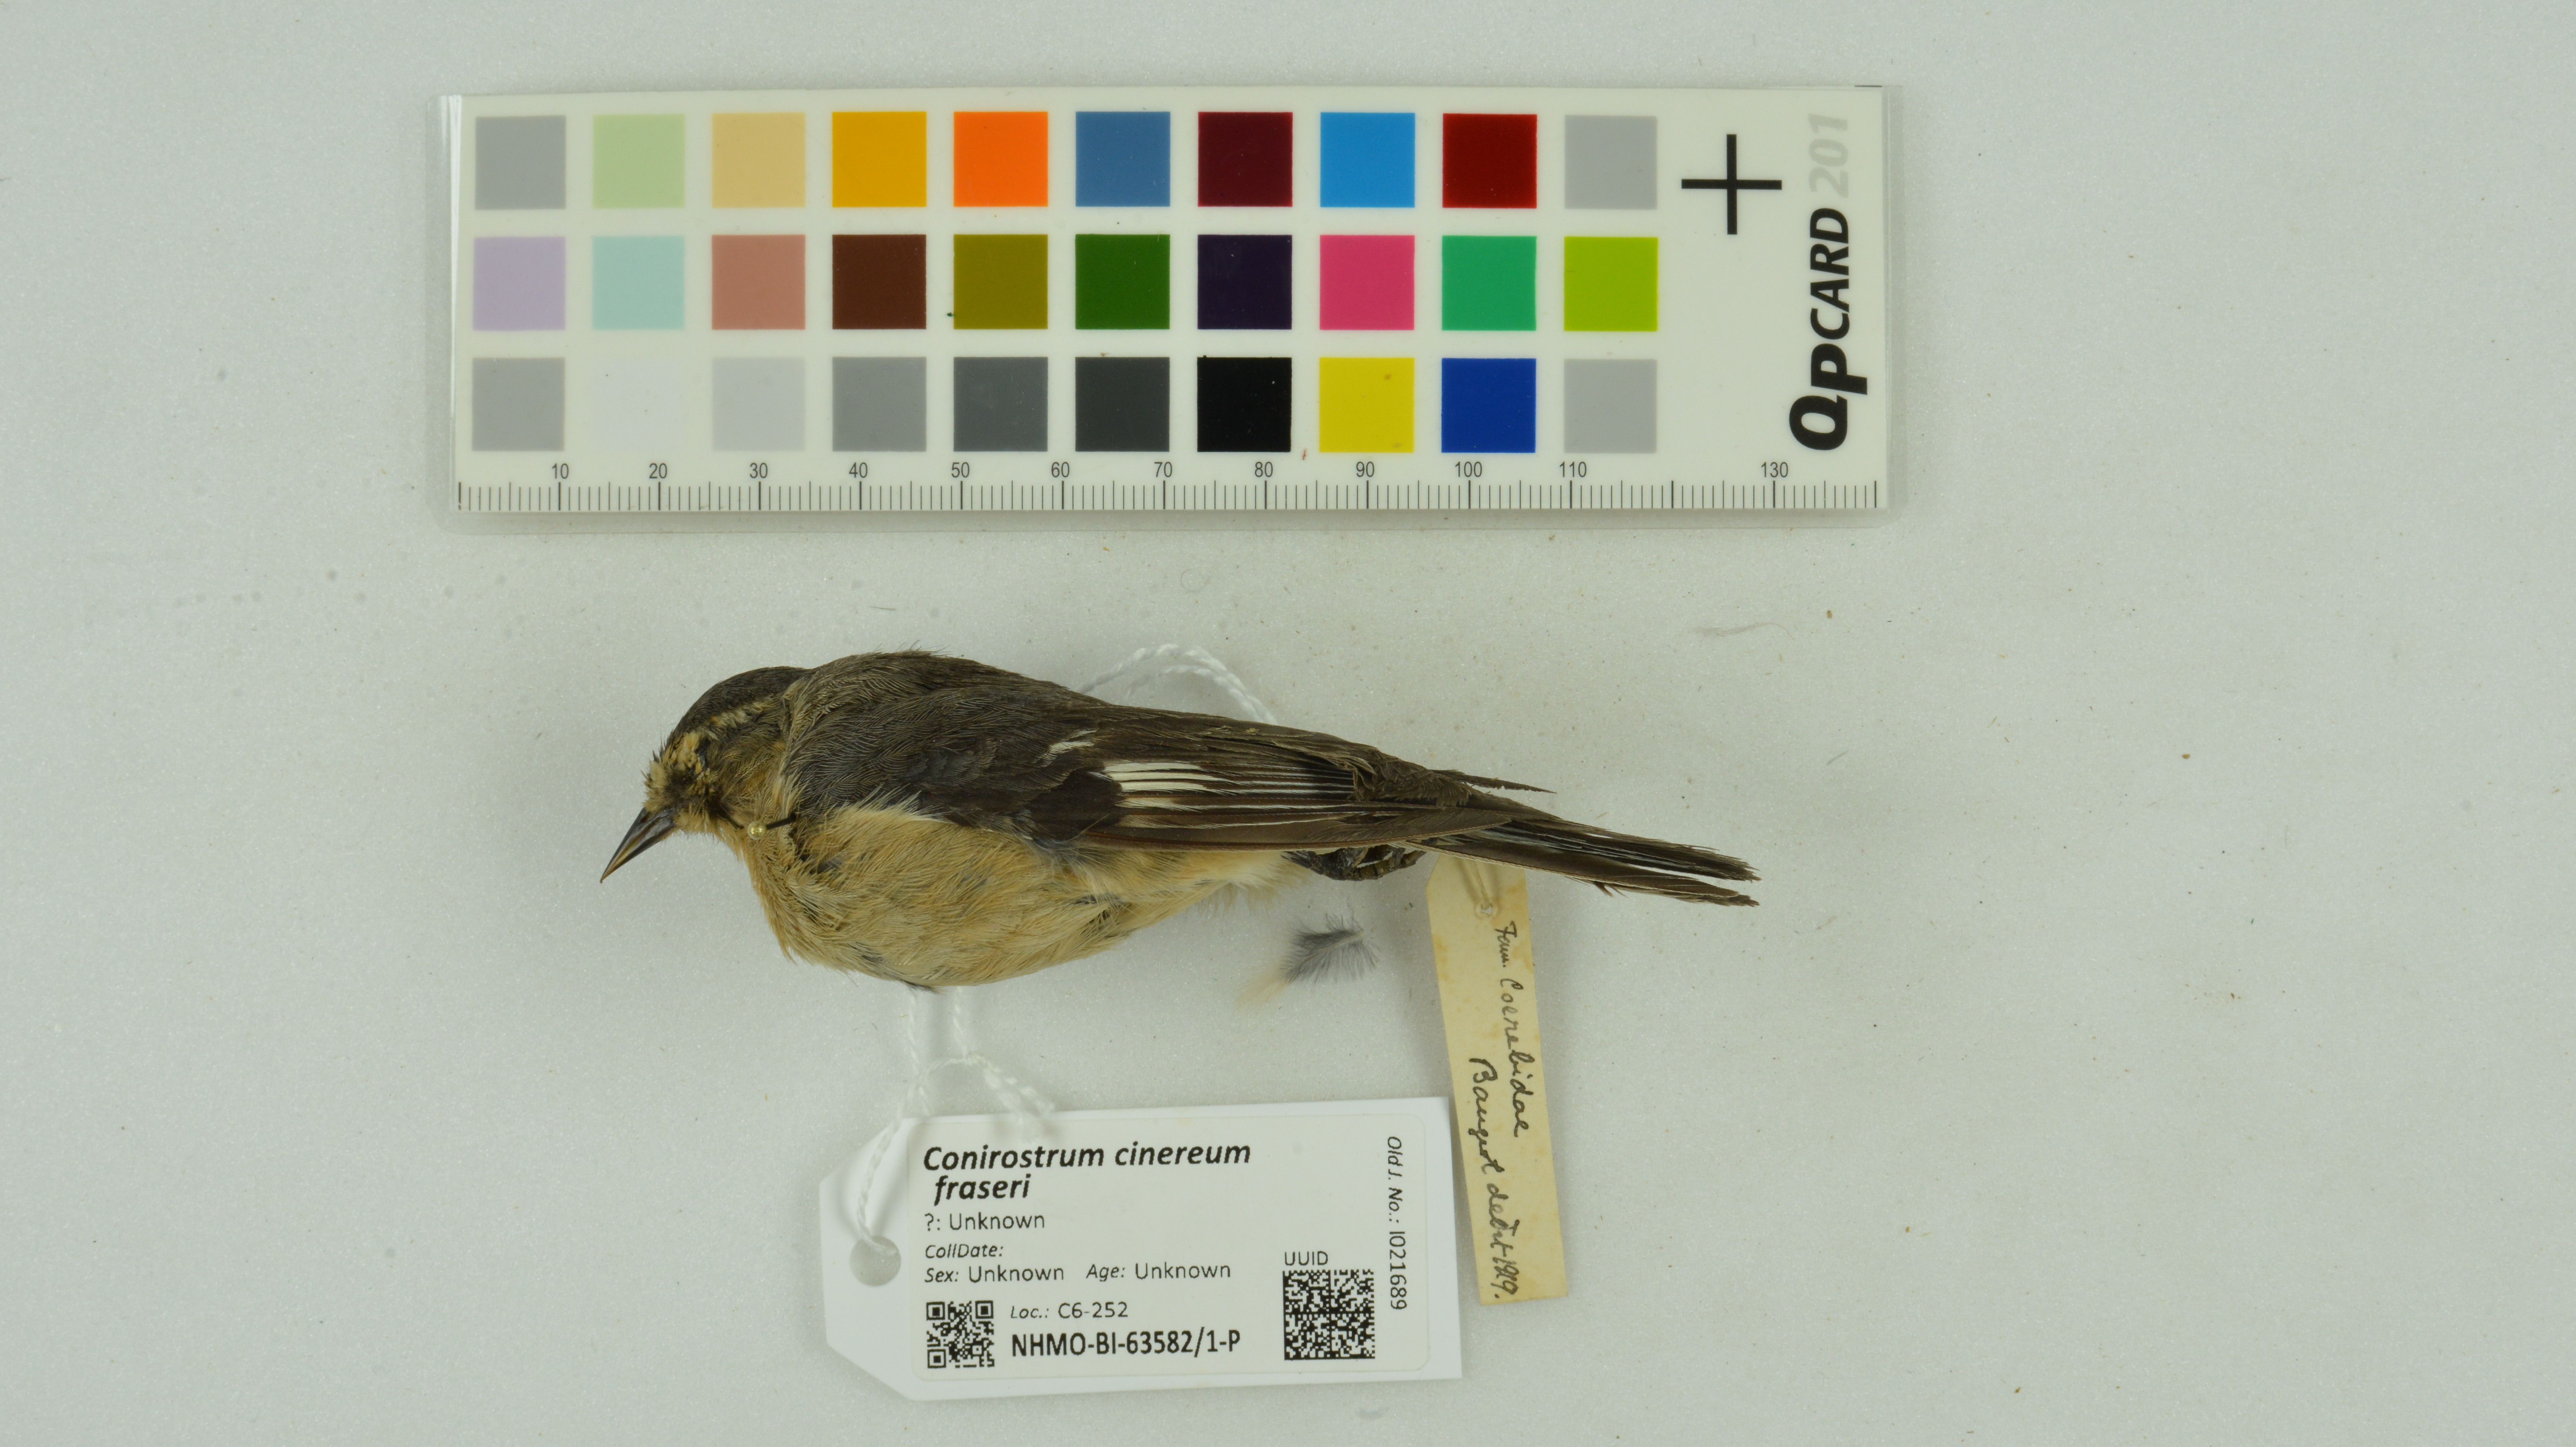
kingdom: Animalia
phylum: Chordata
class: Aves
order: Passeriformes
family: Thraupidae
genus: Conirostrum
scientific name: Conirostrum cinereum
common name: Cinereous conebill
